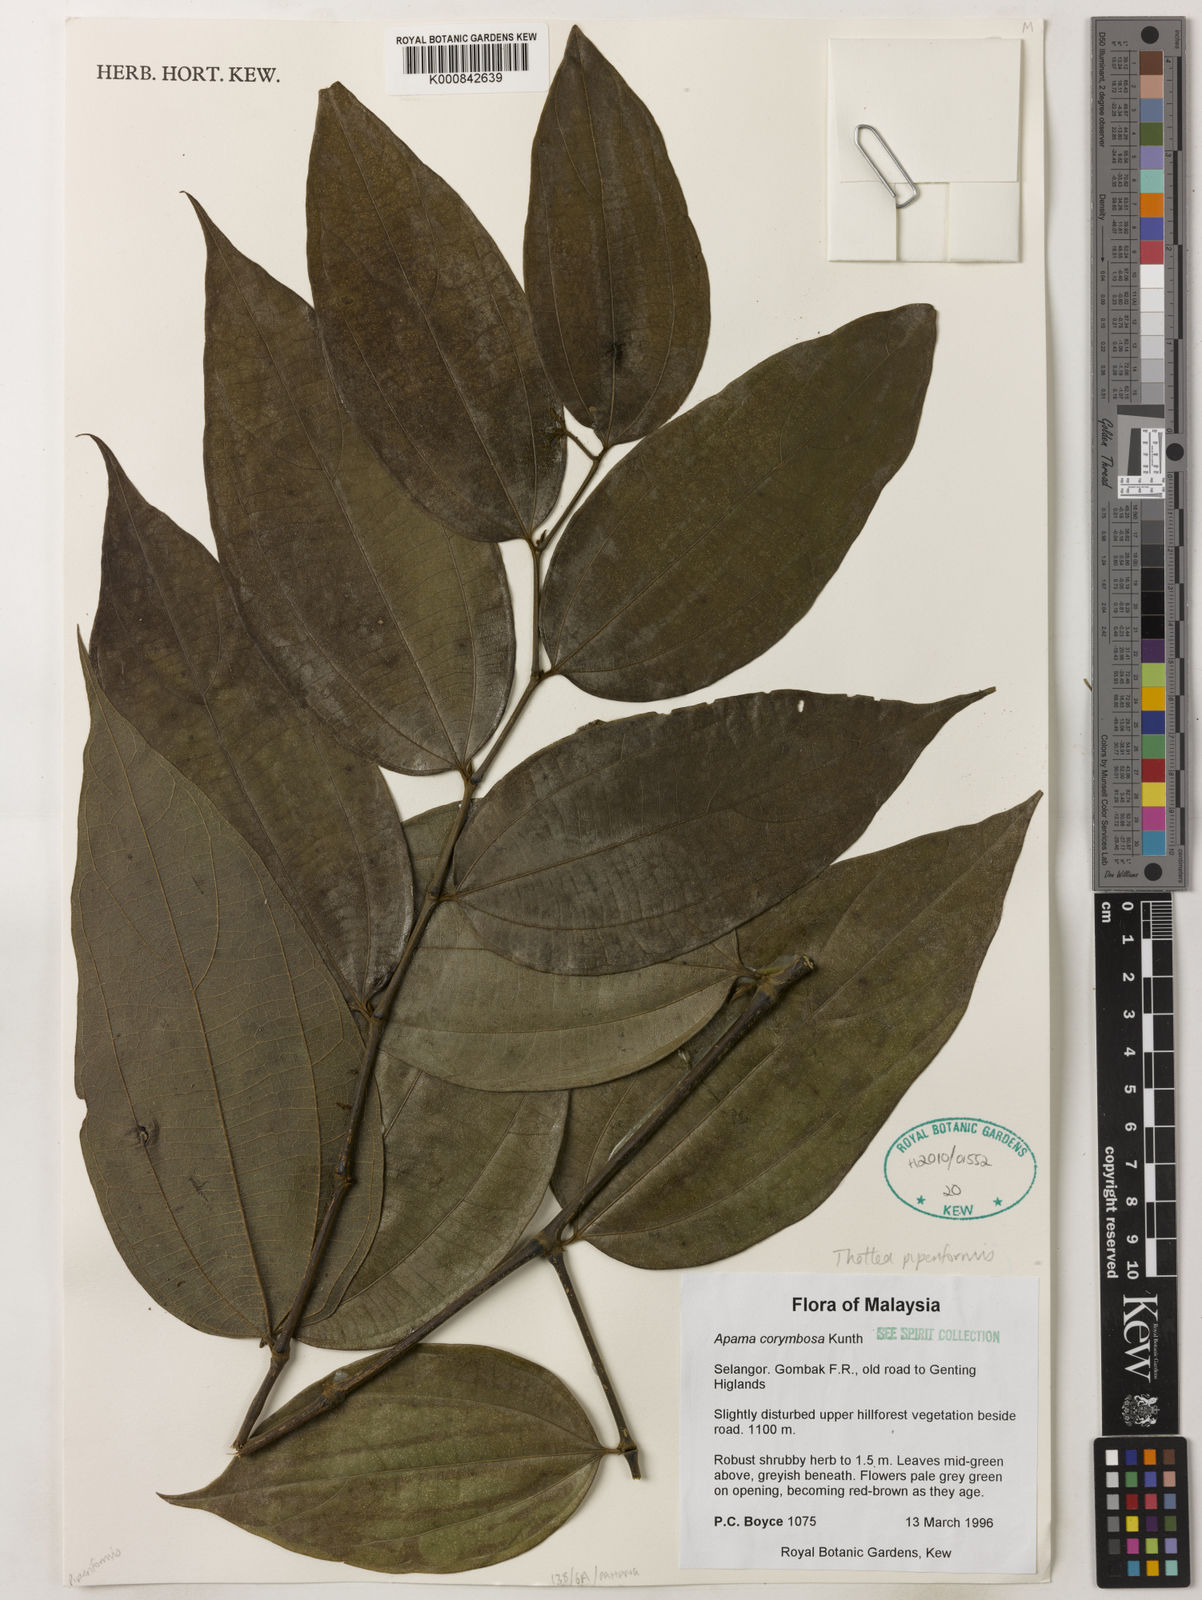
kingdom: Plantae
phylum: Tracheophyta
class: Magnoliopsida
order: Piperales
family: Aristolochiaceae
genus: Thottea
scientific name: Thottea piperiformis
